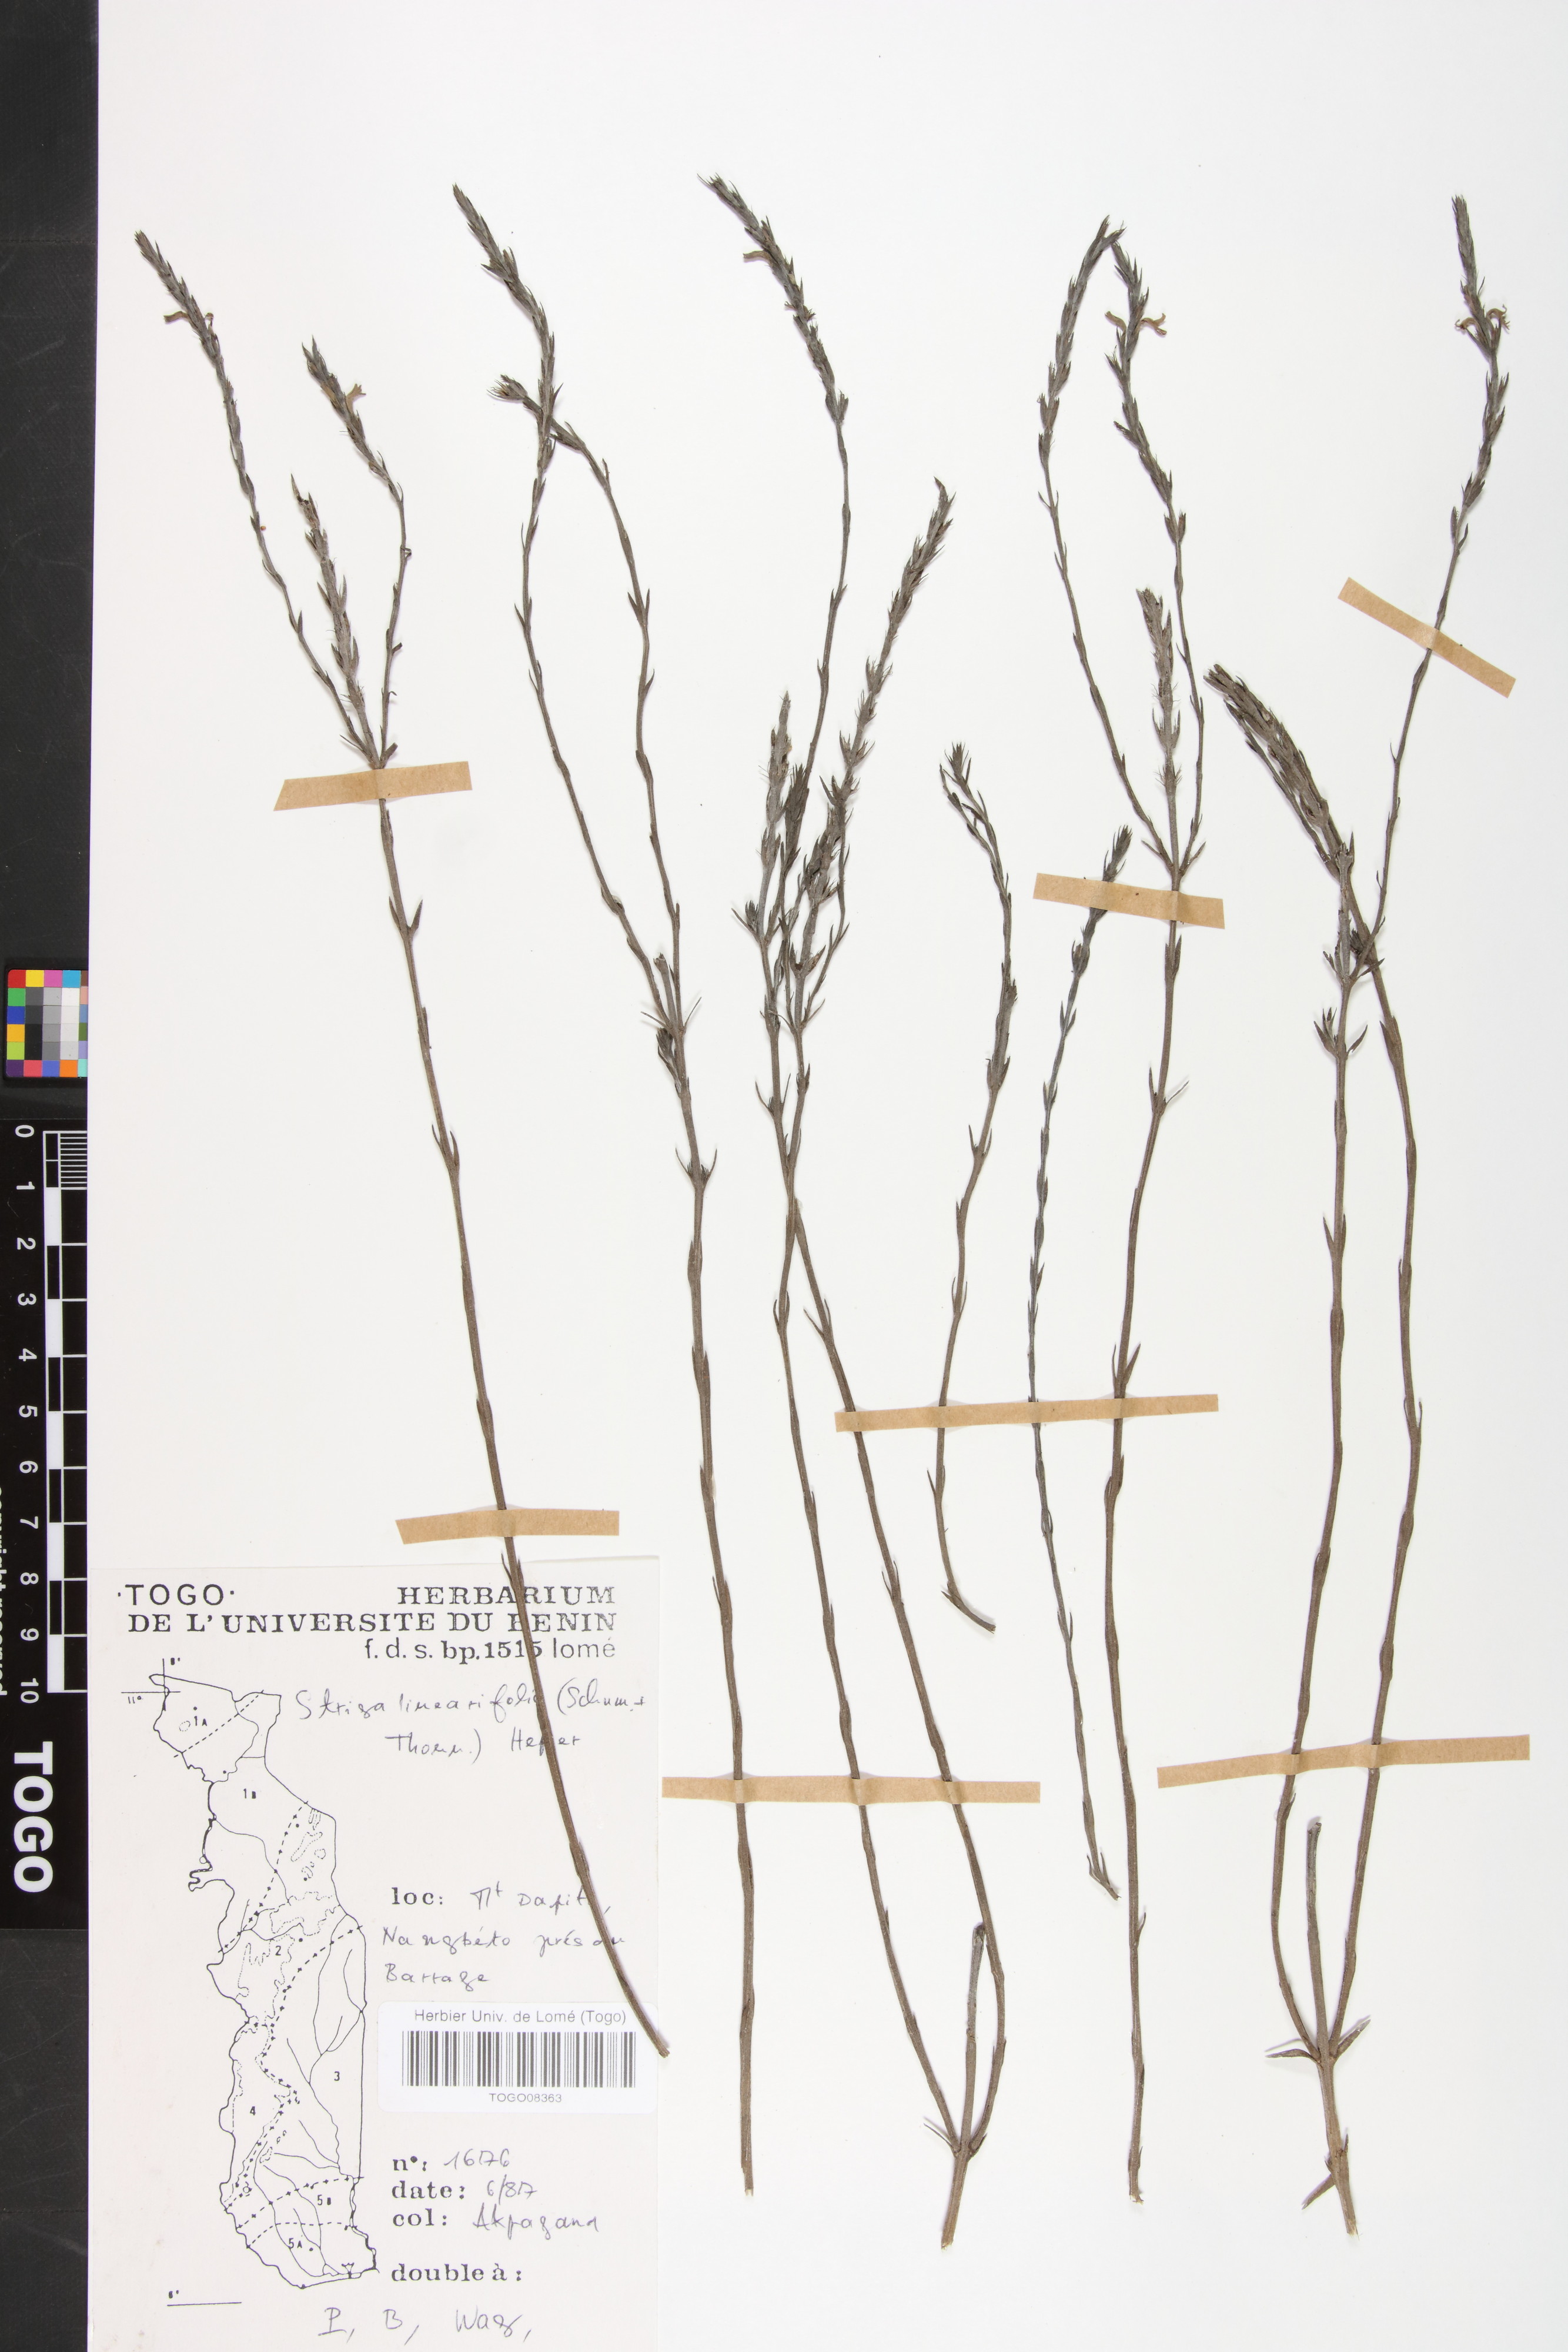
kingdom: Plantae
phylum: Tracheophyta
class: Magnoliopsida
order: Lamiales
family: Orobanchaceae
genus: Striga
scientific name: Striga linearifolia
